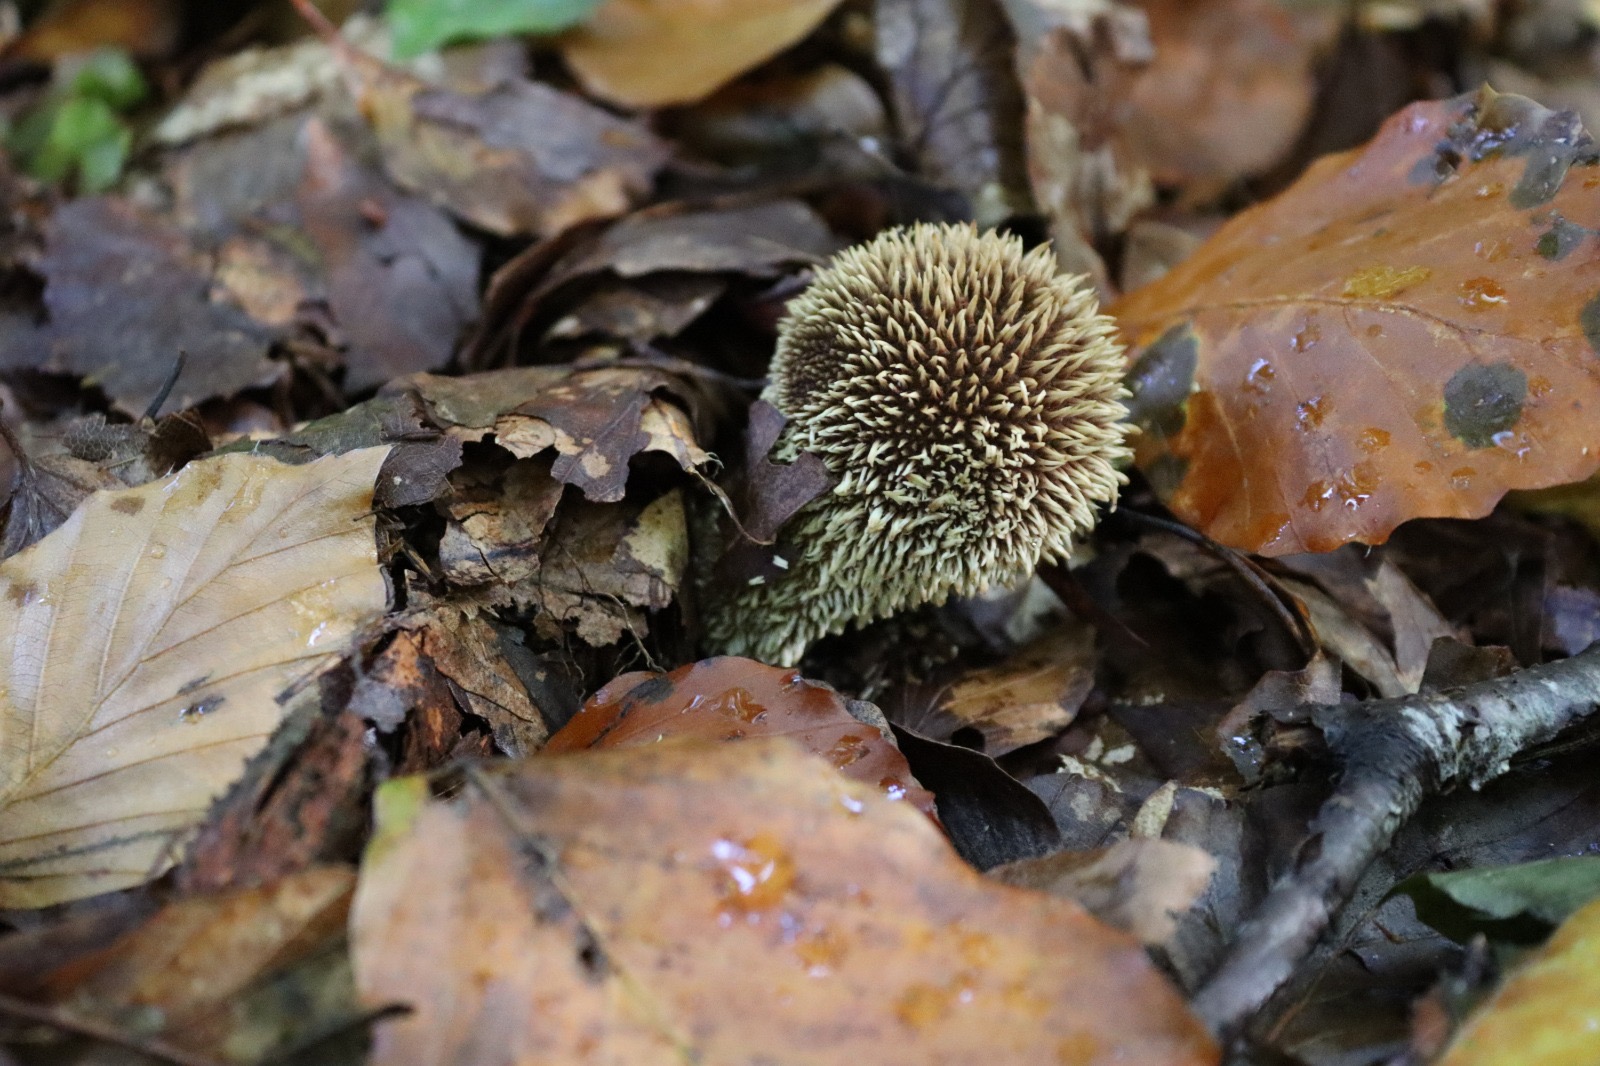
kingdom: Fungi
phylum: Basidiomycota
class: Agaricomycetes
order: Agaricales
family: Lycoperdaceae
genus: Lycoperdon
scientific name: Lycoperdon echinatum
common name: pindsvine-støvbold
